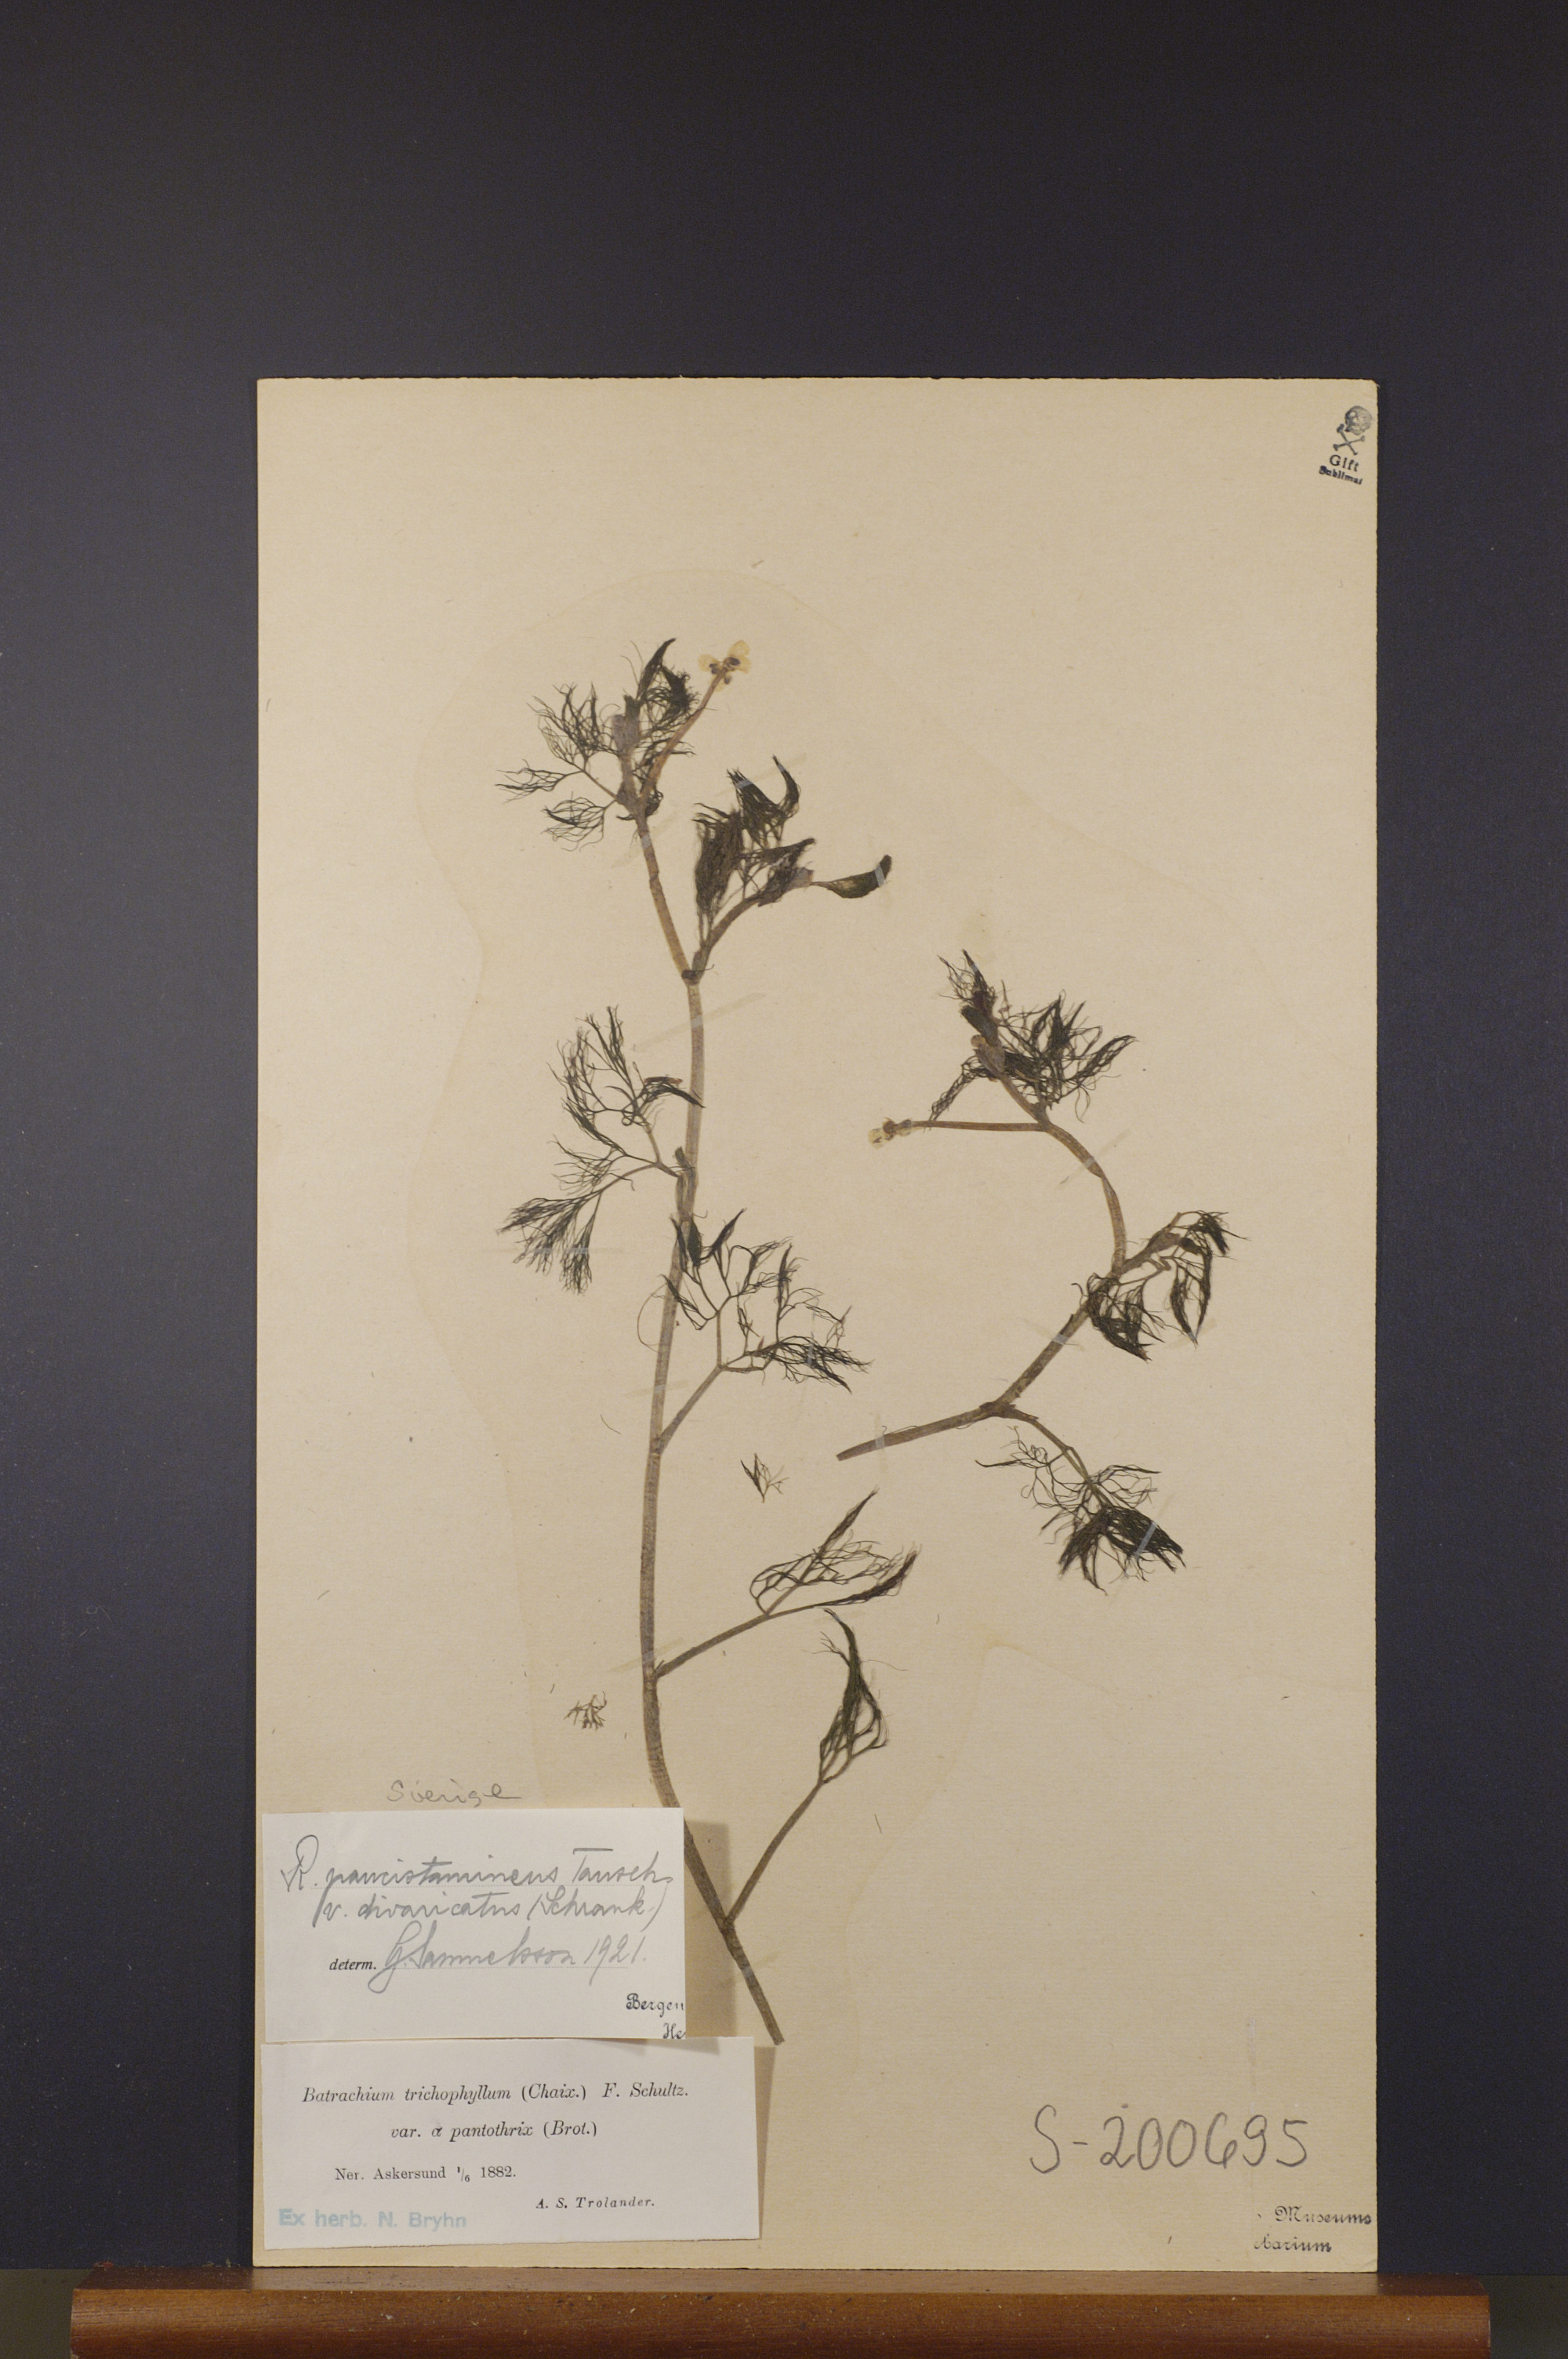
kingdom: Plantae
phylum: Tracheophyta
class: Magnoliopsida
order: Ranunculales
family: Ranunculaceae
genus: Ranunculus
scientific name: Ranunculus trichophyllus
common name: Thread-leaved water-crowfoot
